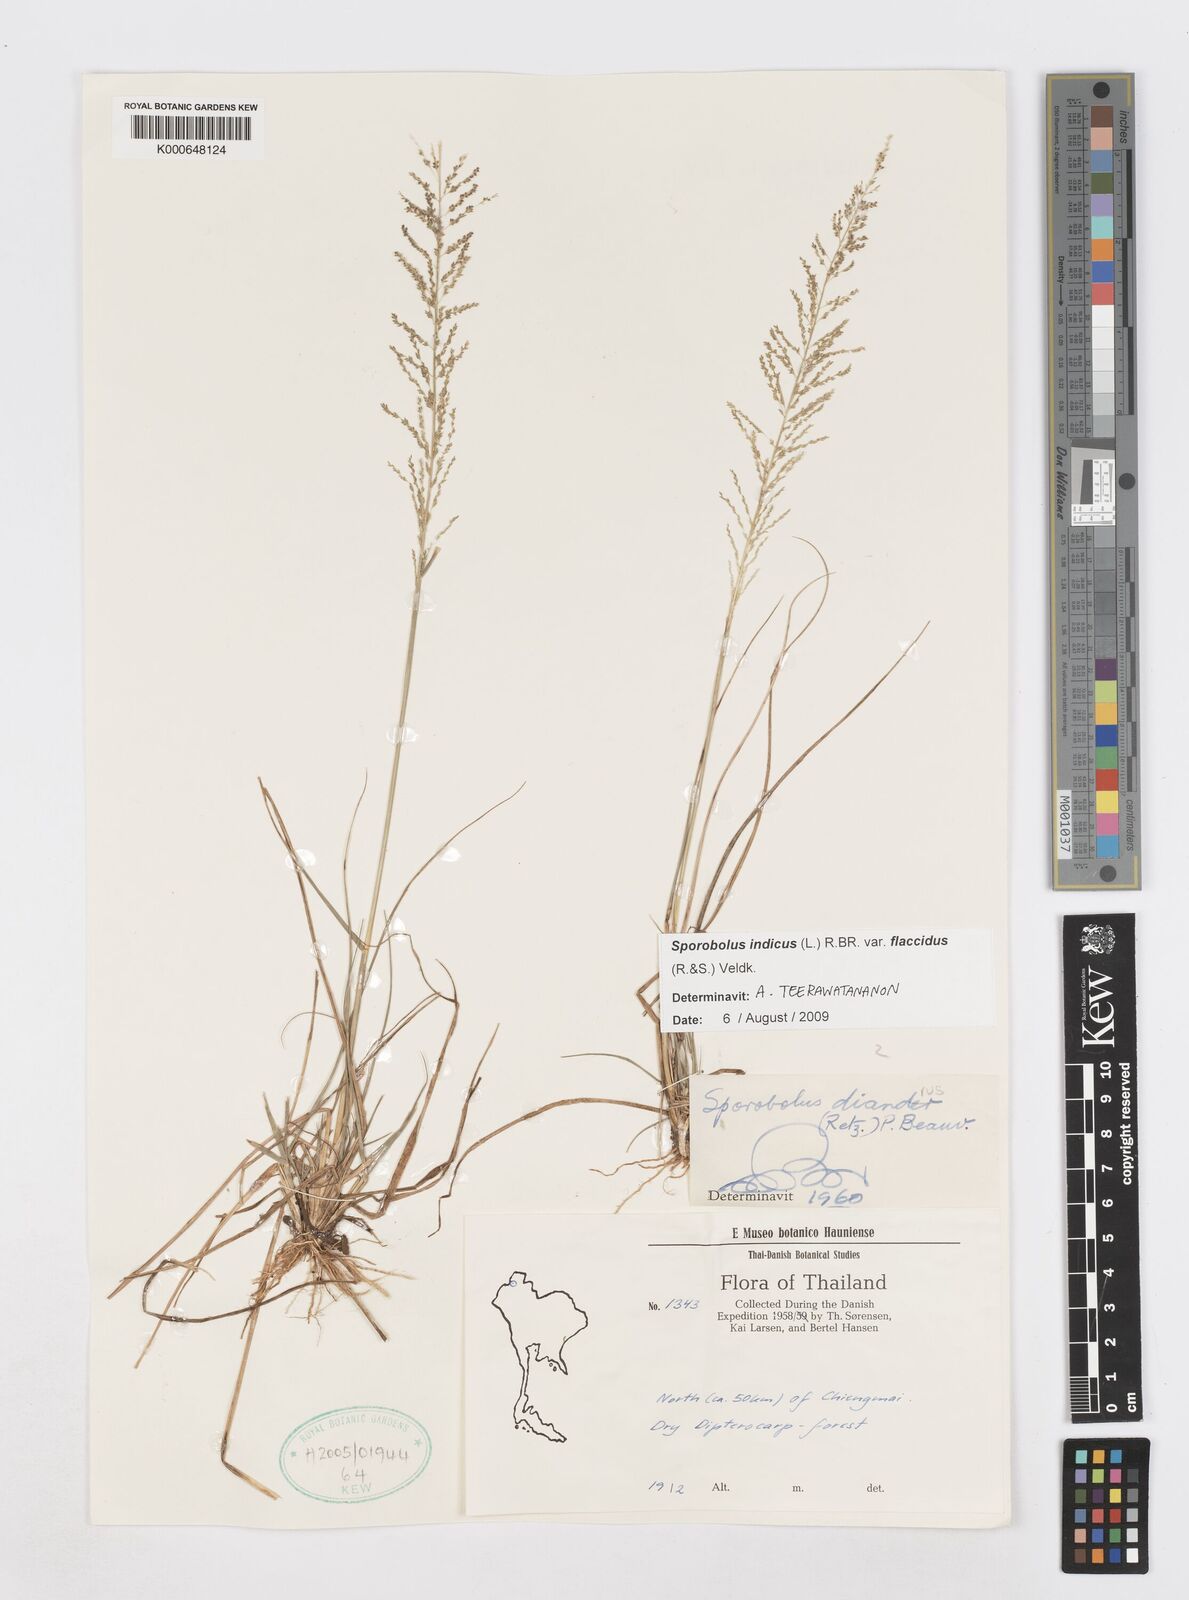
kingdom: Plantae
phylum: Tracheophyta
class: Liliopsida
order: Poales
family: Poaceae
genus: Sporobolus
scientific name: Sporobolus diandrus
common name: Tussock dropseed
